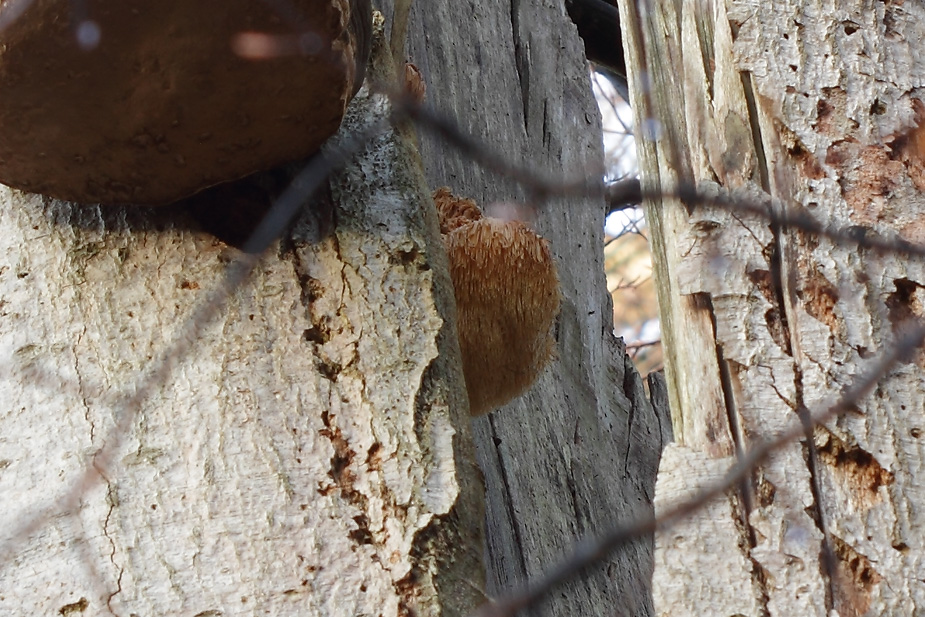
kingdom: Fungi
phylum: Basidiomycota
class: Agaricomycetes
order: Russulales
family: Hericiaceae
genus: Hericium
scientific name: Hericium erinaceus
